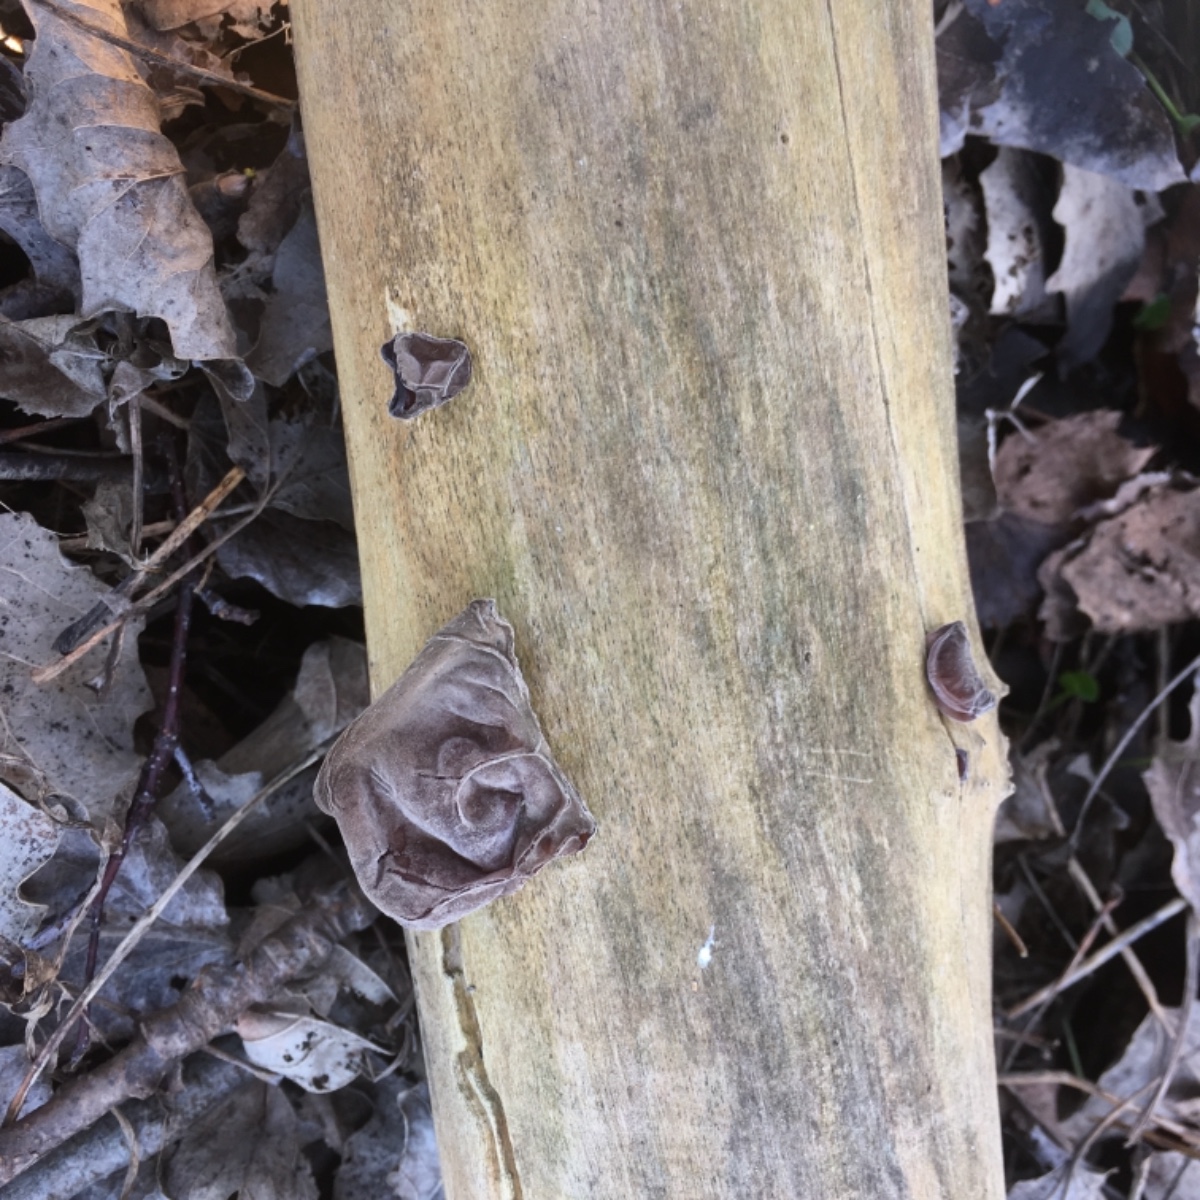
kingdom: Fungi
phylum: Basidiomycota
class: Agaricomycetes
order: Auriculariales
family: Auriculariaceae
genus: Auricularia
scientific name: Auricularia auricula-judae
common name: almindelig judasøre
